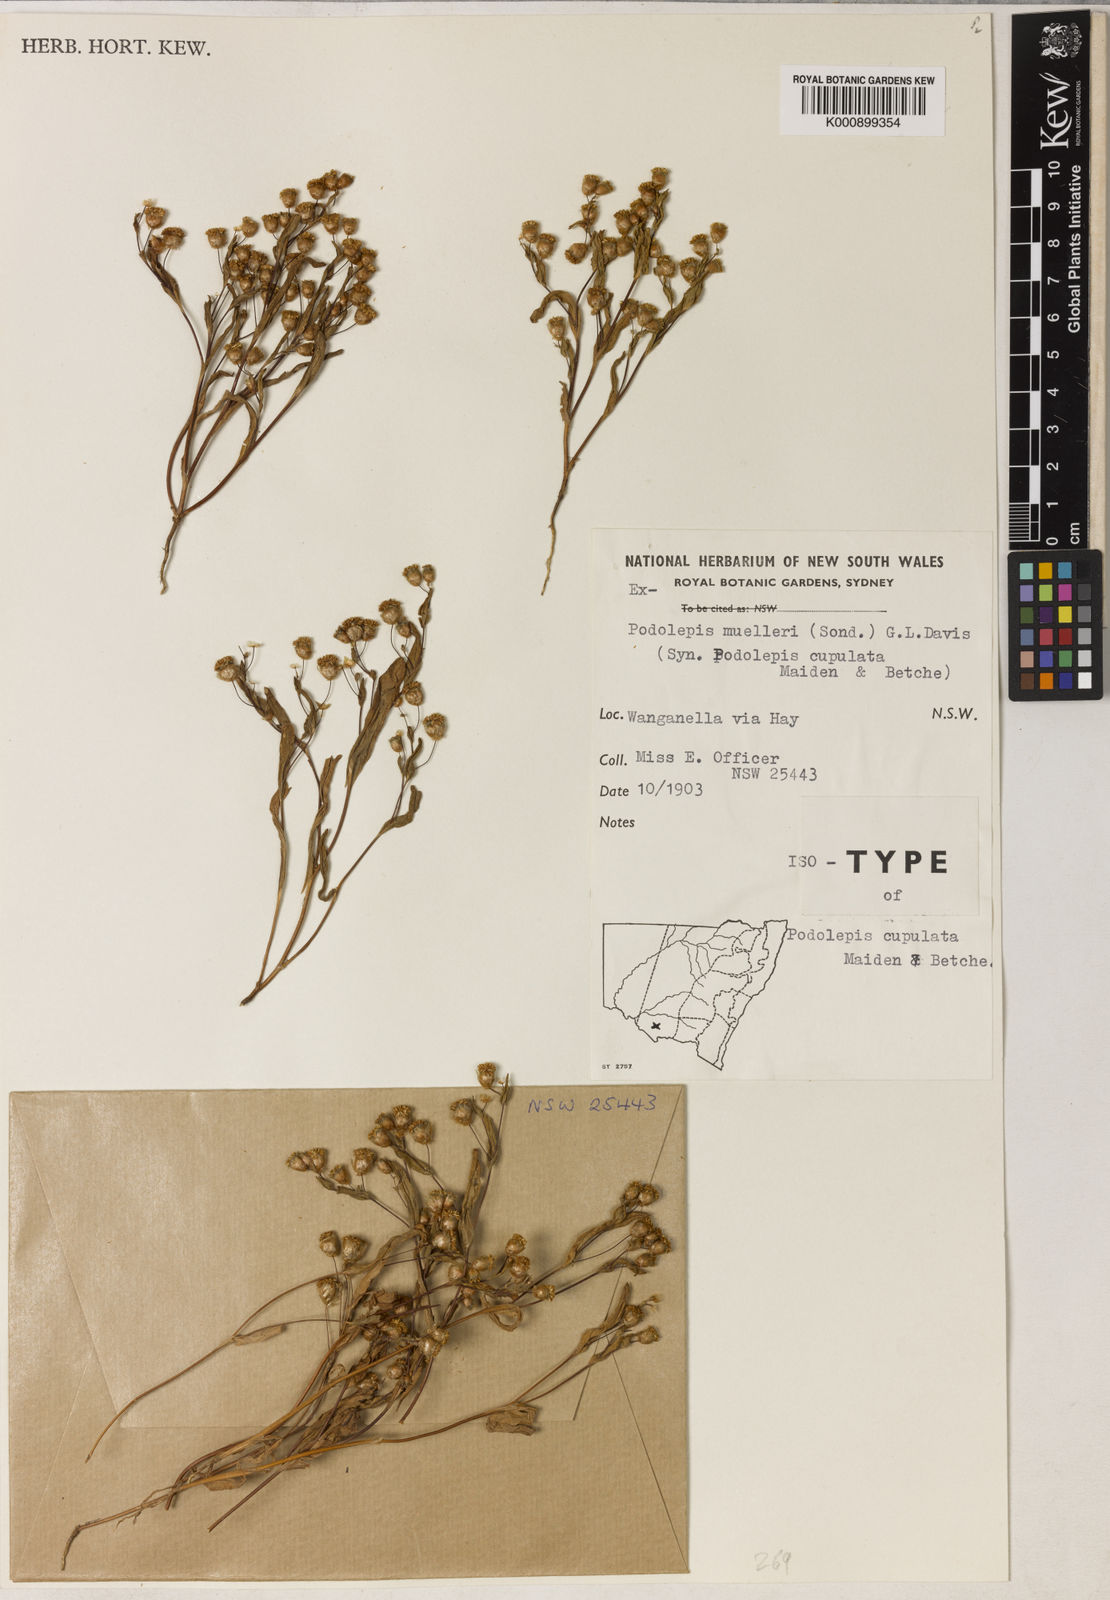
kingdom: Plantae
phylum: Tracheophyta
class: Magnoliopsida
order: Asterales
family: Asteraceae
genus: Panaetia
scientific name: Panaetia muelleri
